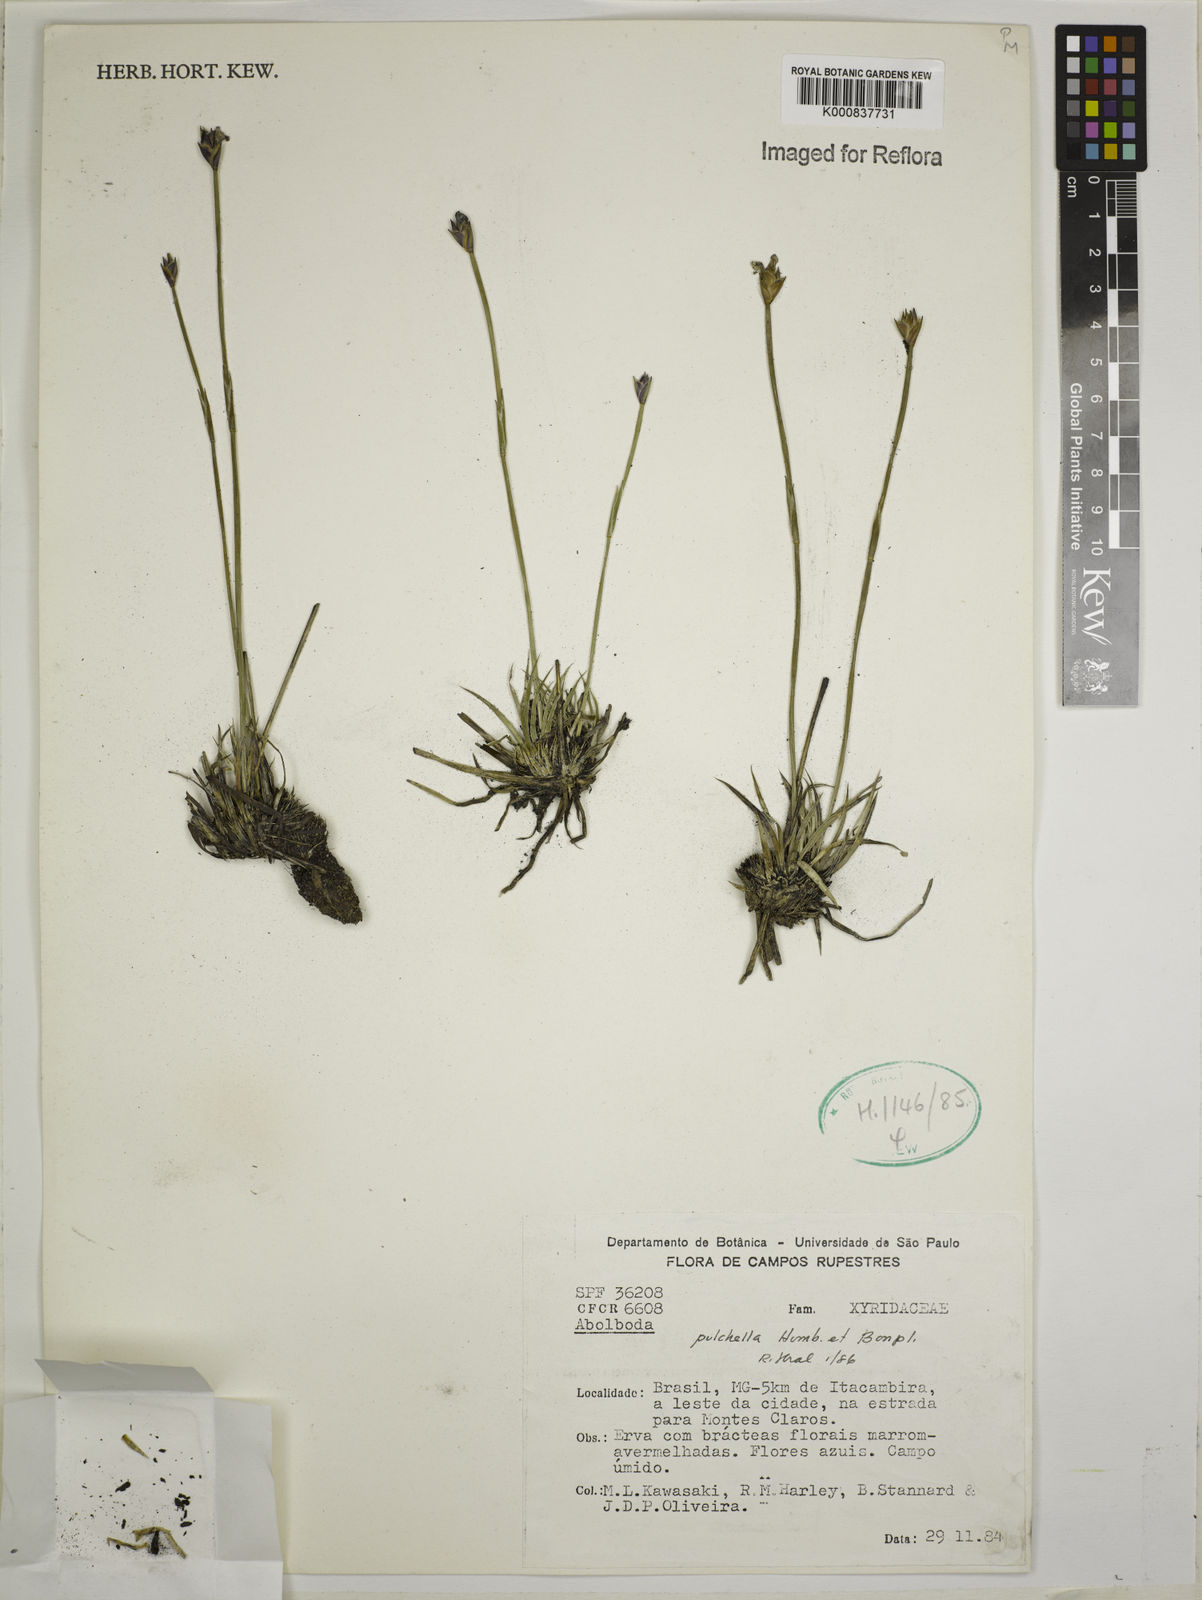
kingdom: Plantae
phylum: Tracheophyta
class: Liliopsida
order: Poales
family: Xyridaceae
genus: Abolboda
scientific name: Abolboda pulchella
